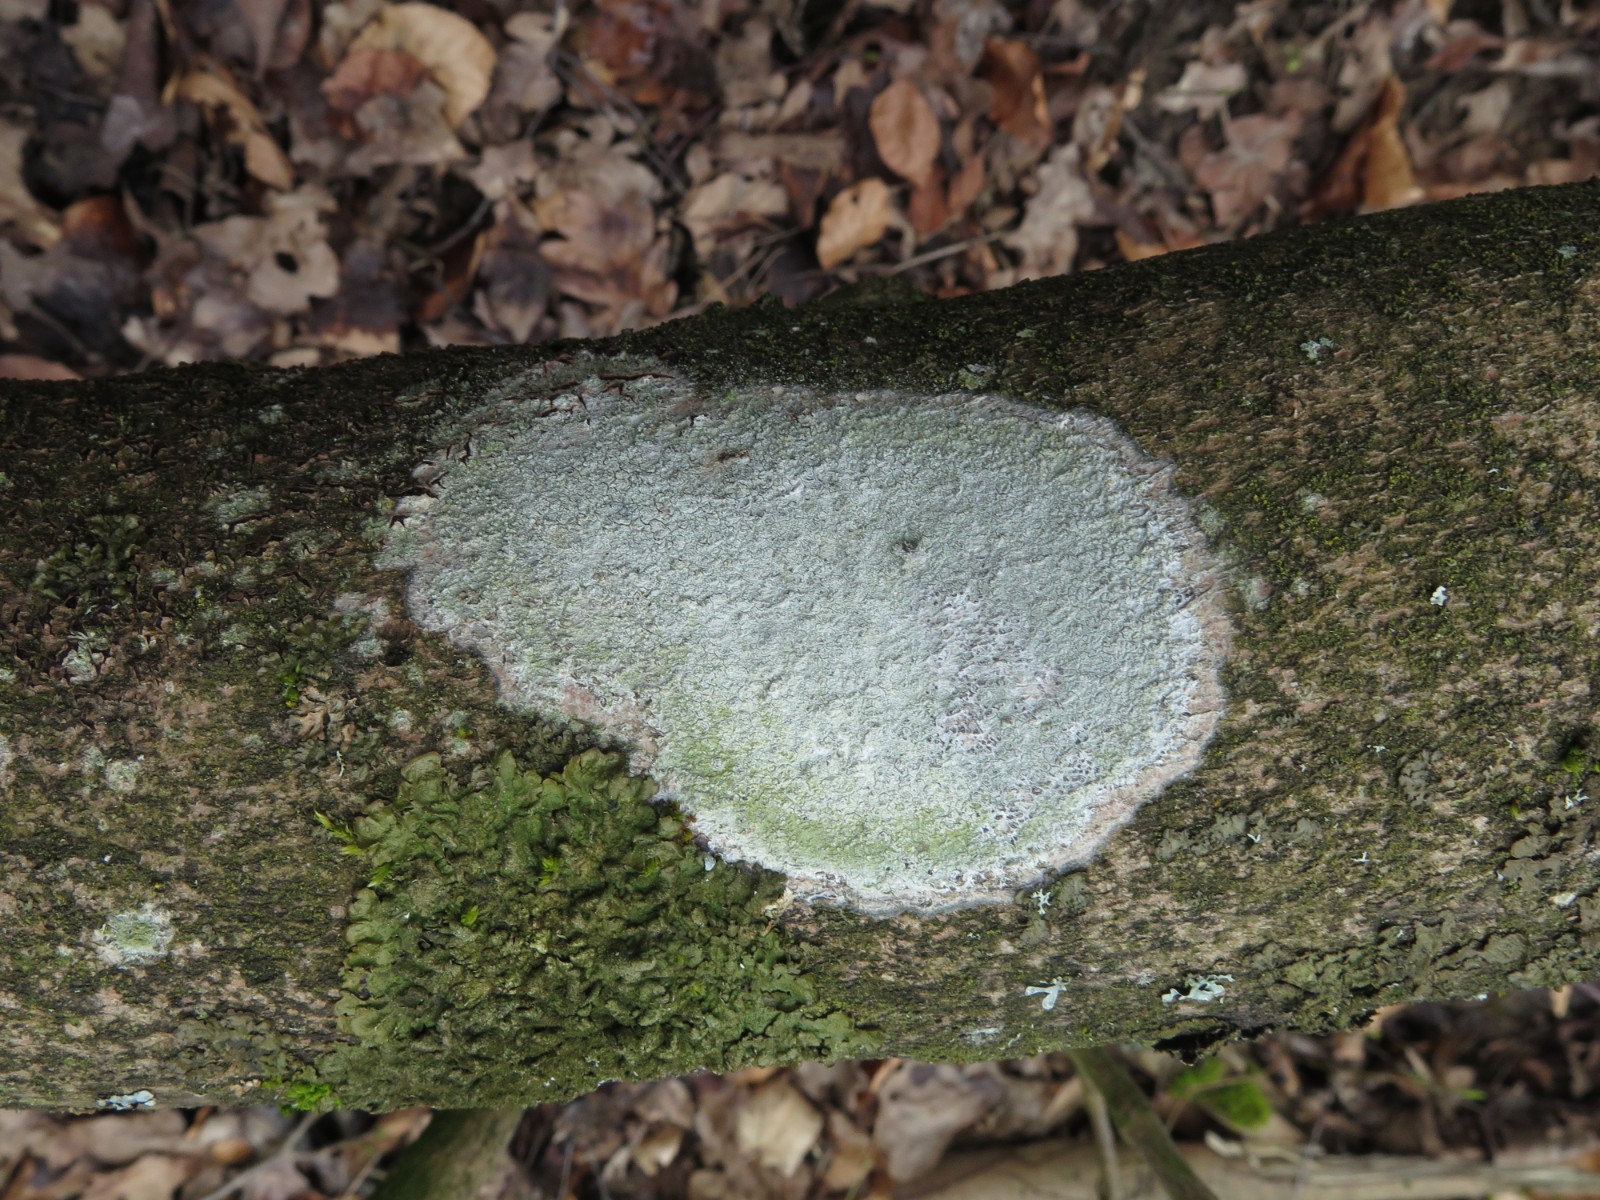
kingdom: Fungi
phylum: Ascomycota
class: Lecanoromycetes
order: Ostropales
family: Phlyctidaceae
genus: Phlyctis
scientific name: Phlyctis argena
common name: almindelig sølvlav
